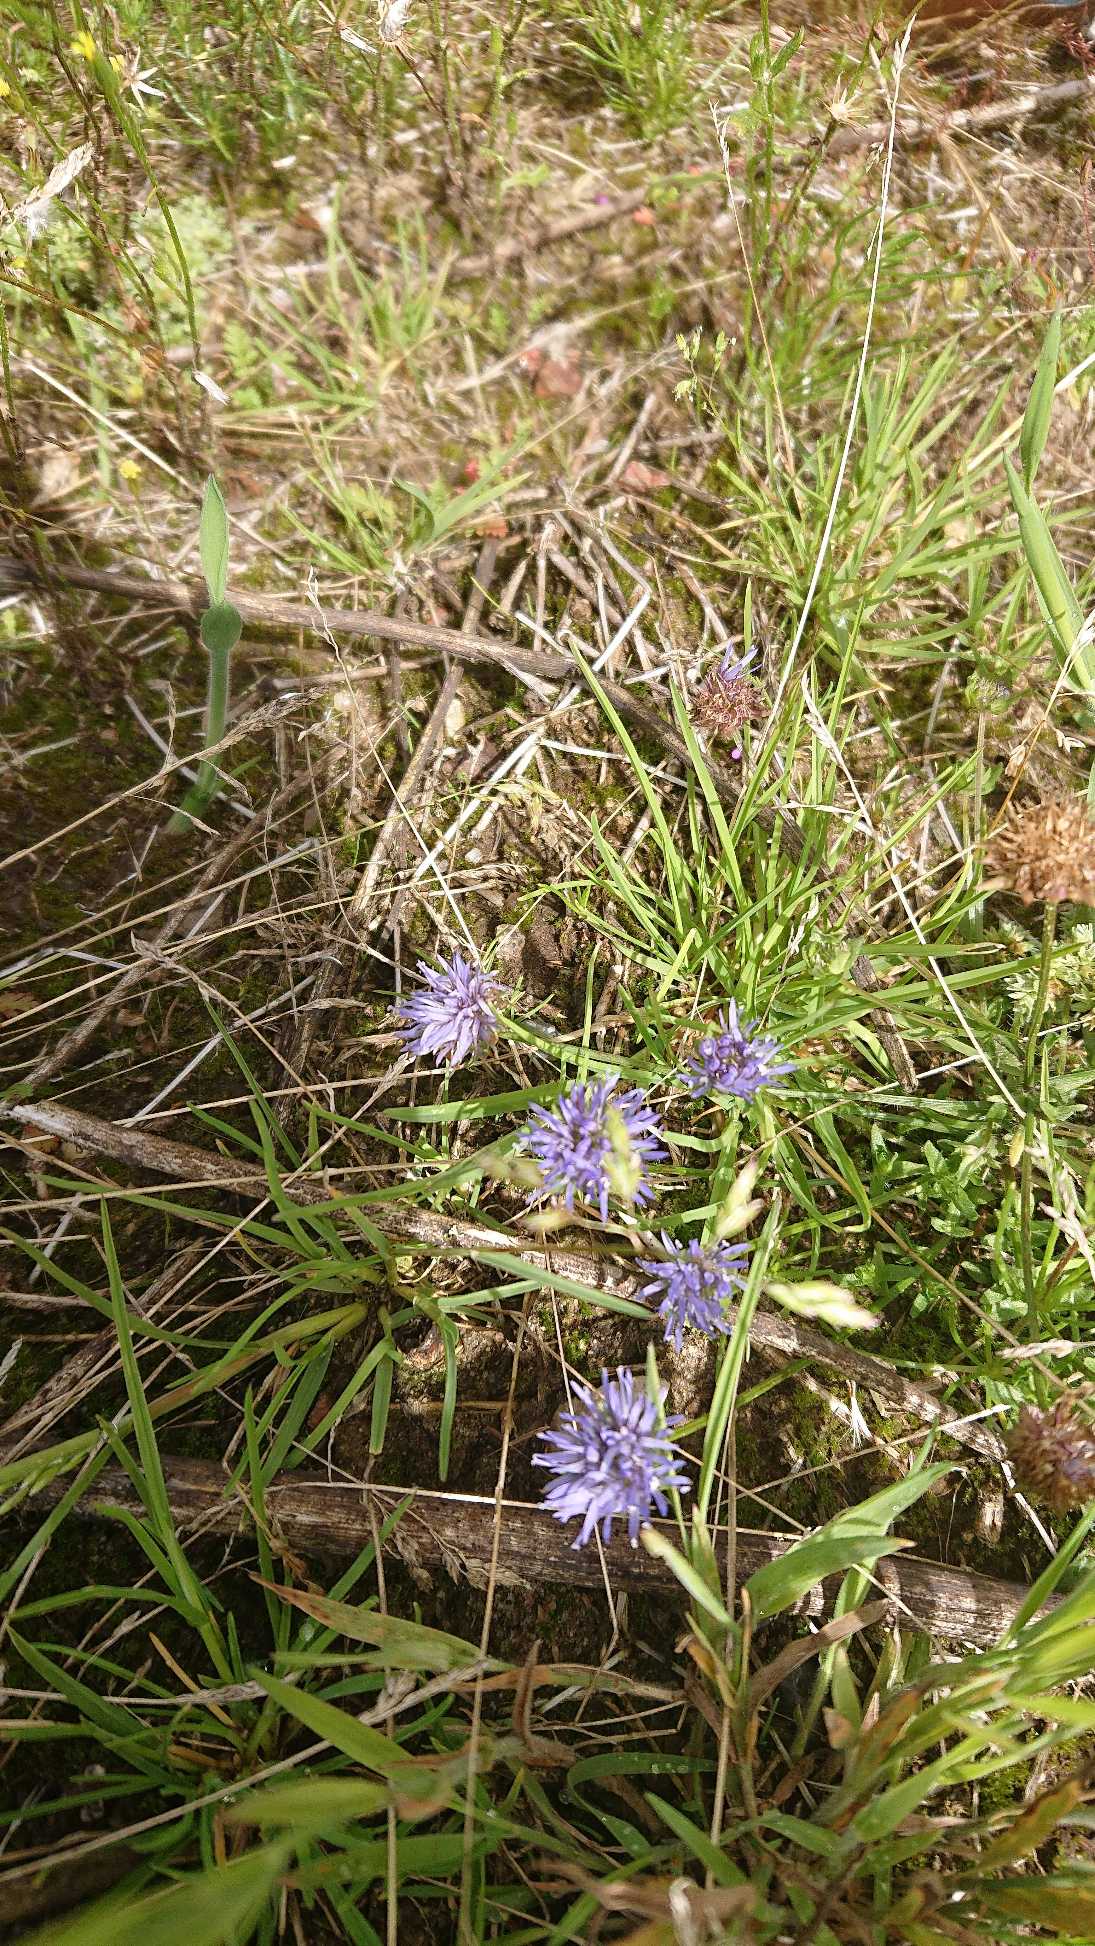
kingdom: Plantae
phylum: Tracheophyta
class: Magnoliopsida
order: Asterales
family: Campanulaceae
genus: Jasione
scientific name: Jasione montana
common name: Blåmunke
